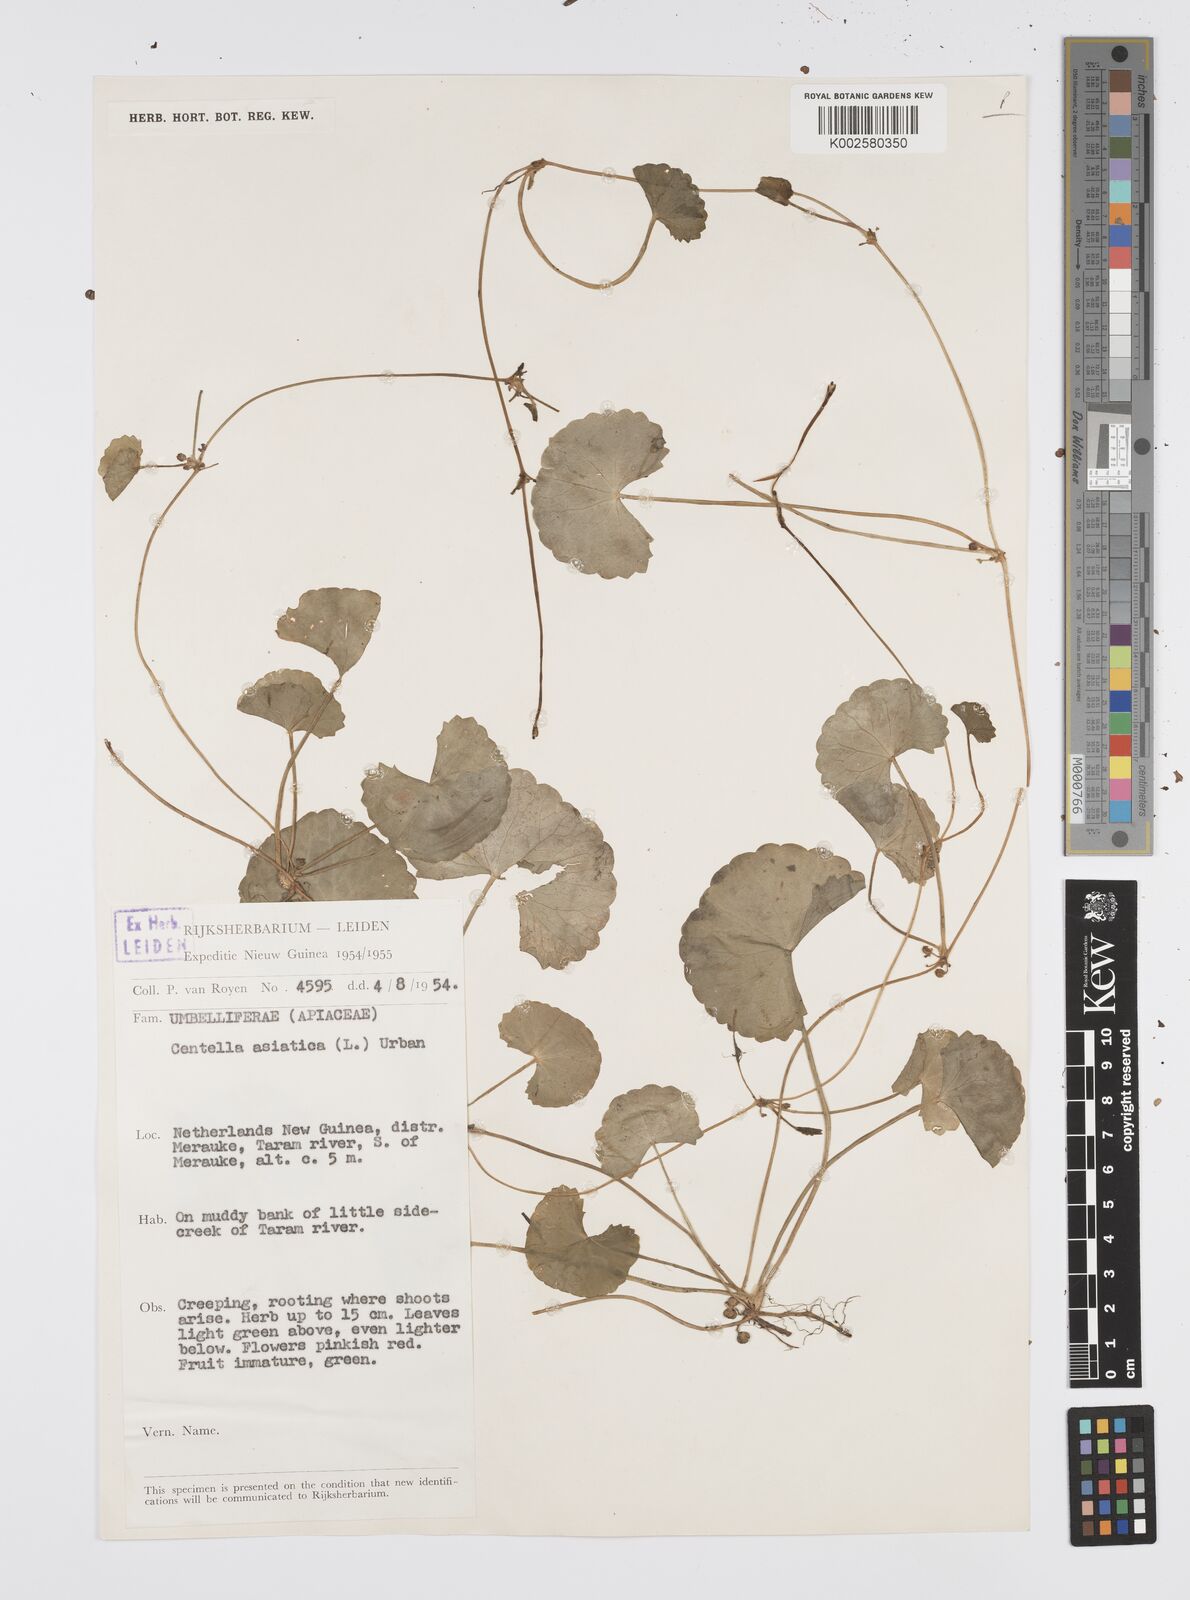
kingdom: Plantae
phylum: Tracheophyta
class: Magnoliopsida
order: Apiales
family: Apiaceae
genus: Centella
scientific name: Centella asiatica
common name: Spadeleaf
